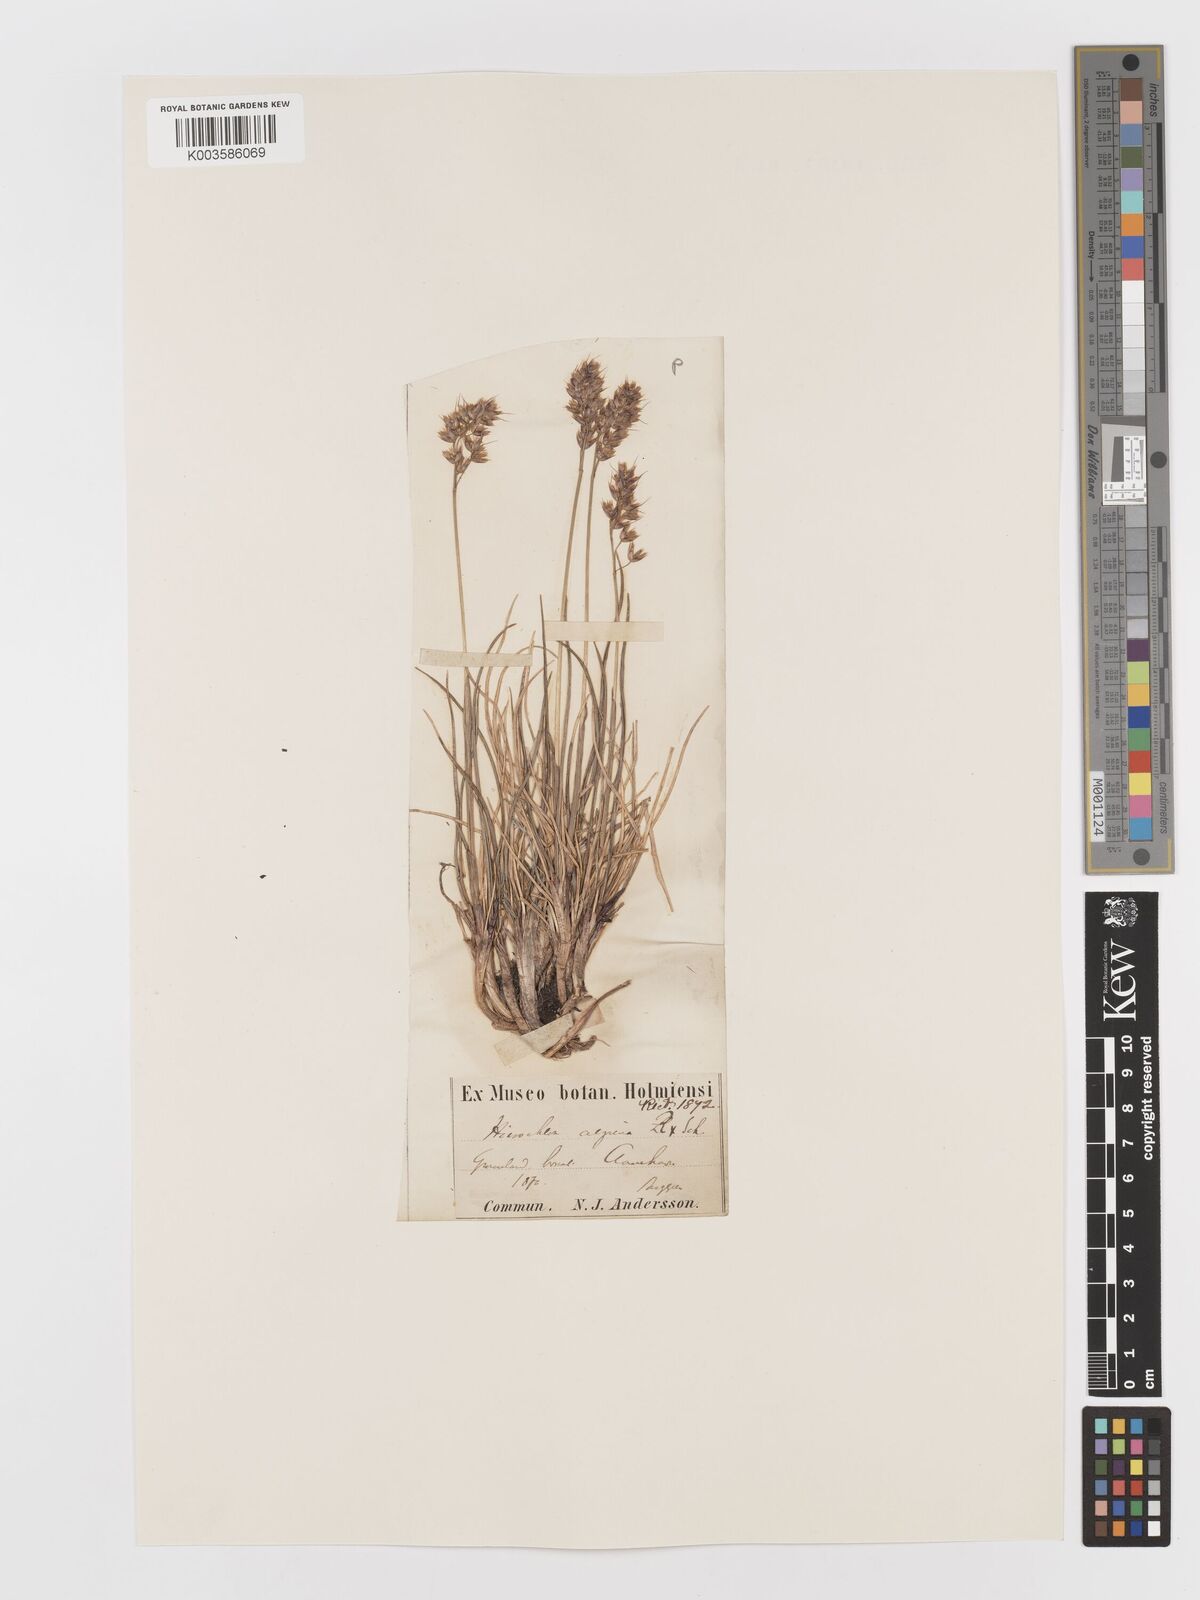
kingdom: Plantae
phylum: Tracheophyta
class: Liliopsida
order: Poales
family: Poaceae
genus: Anthoxanthum
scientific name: Anthoxanthum monticola
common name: Alpine sweetgrass
